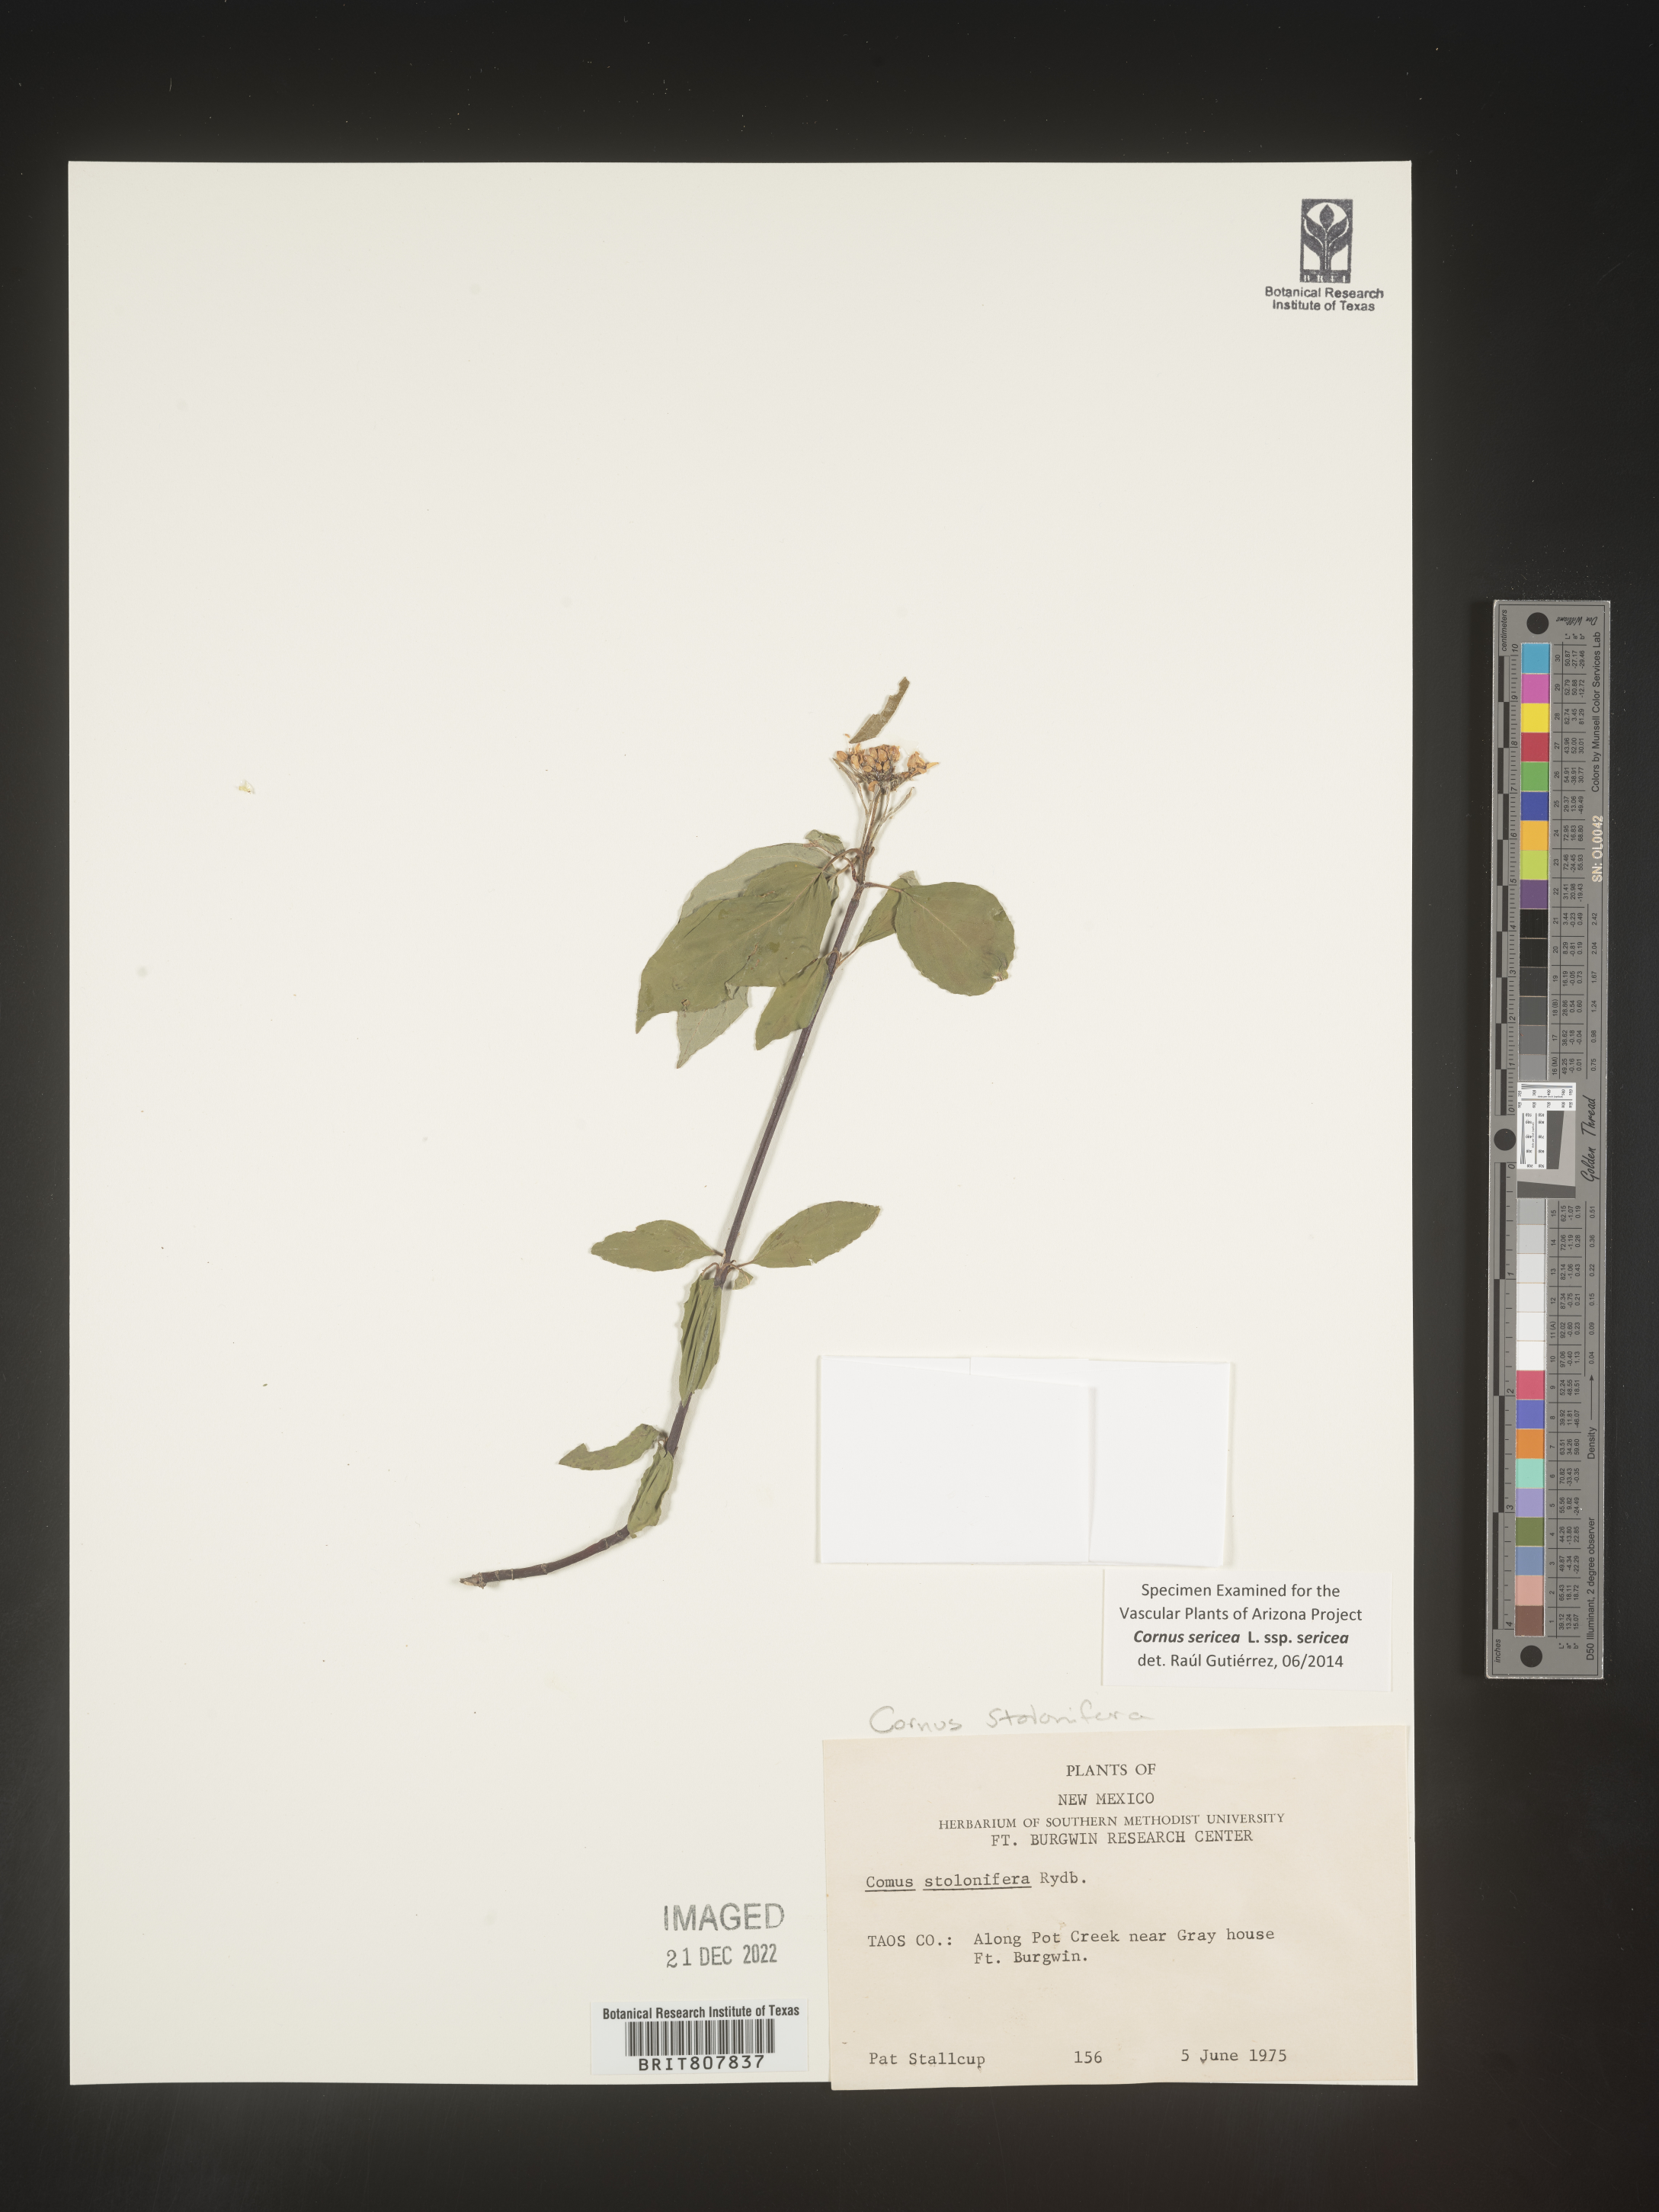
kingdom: Plantae
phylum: Tracheophyta
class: Magnoliopsida
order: Cornales
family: Cornaceae
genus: Cornus
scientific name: Cornus
